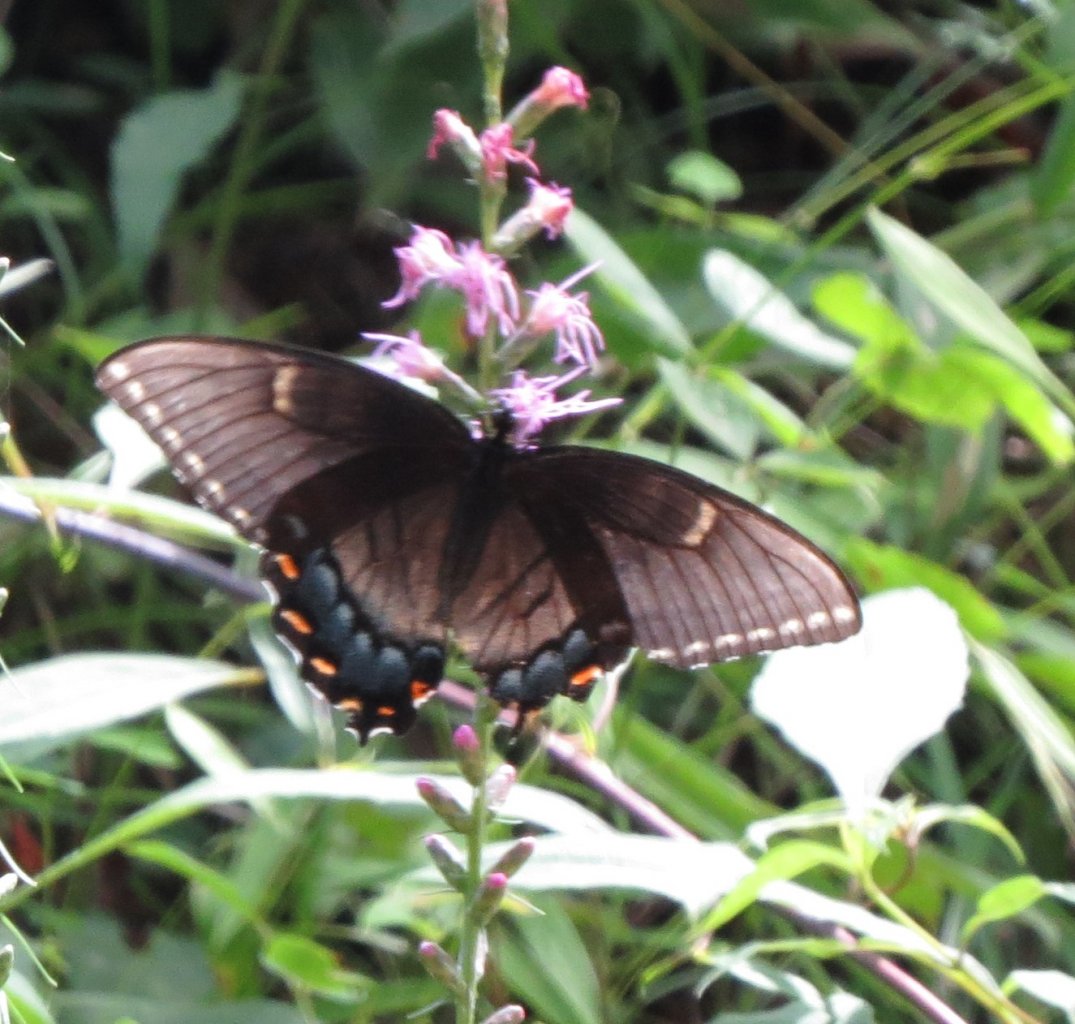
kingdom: Animalia
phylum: Arthropoda
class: Insecta
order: Lepidoptera
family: Papilionidae
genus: Pterourus
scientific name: Pterourus glaucus
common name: Eastern Tiger Swallowtail
